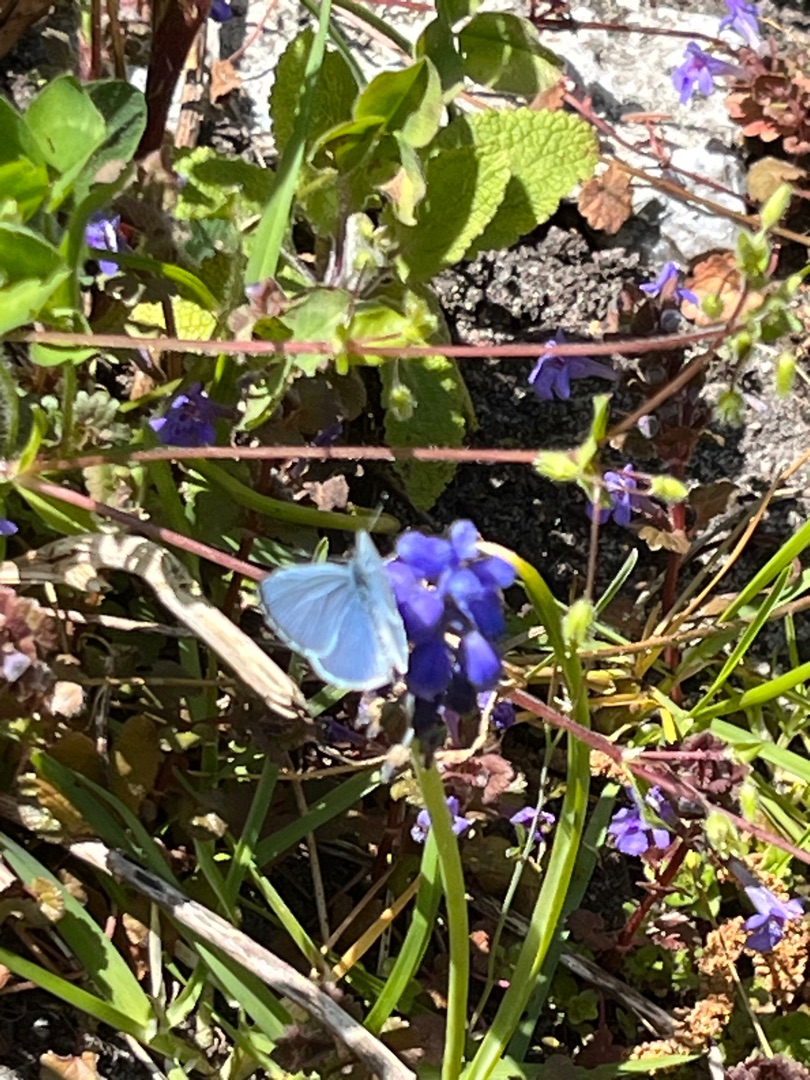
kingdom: Animalia
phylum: Arthropoda
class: Insecta
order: Lepidoptera
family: Lycaenidae
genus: Celastrina
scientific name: Celastrina argiolus
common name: Skovblåfugl
